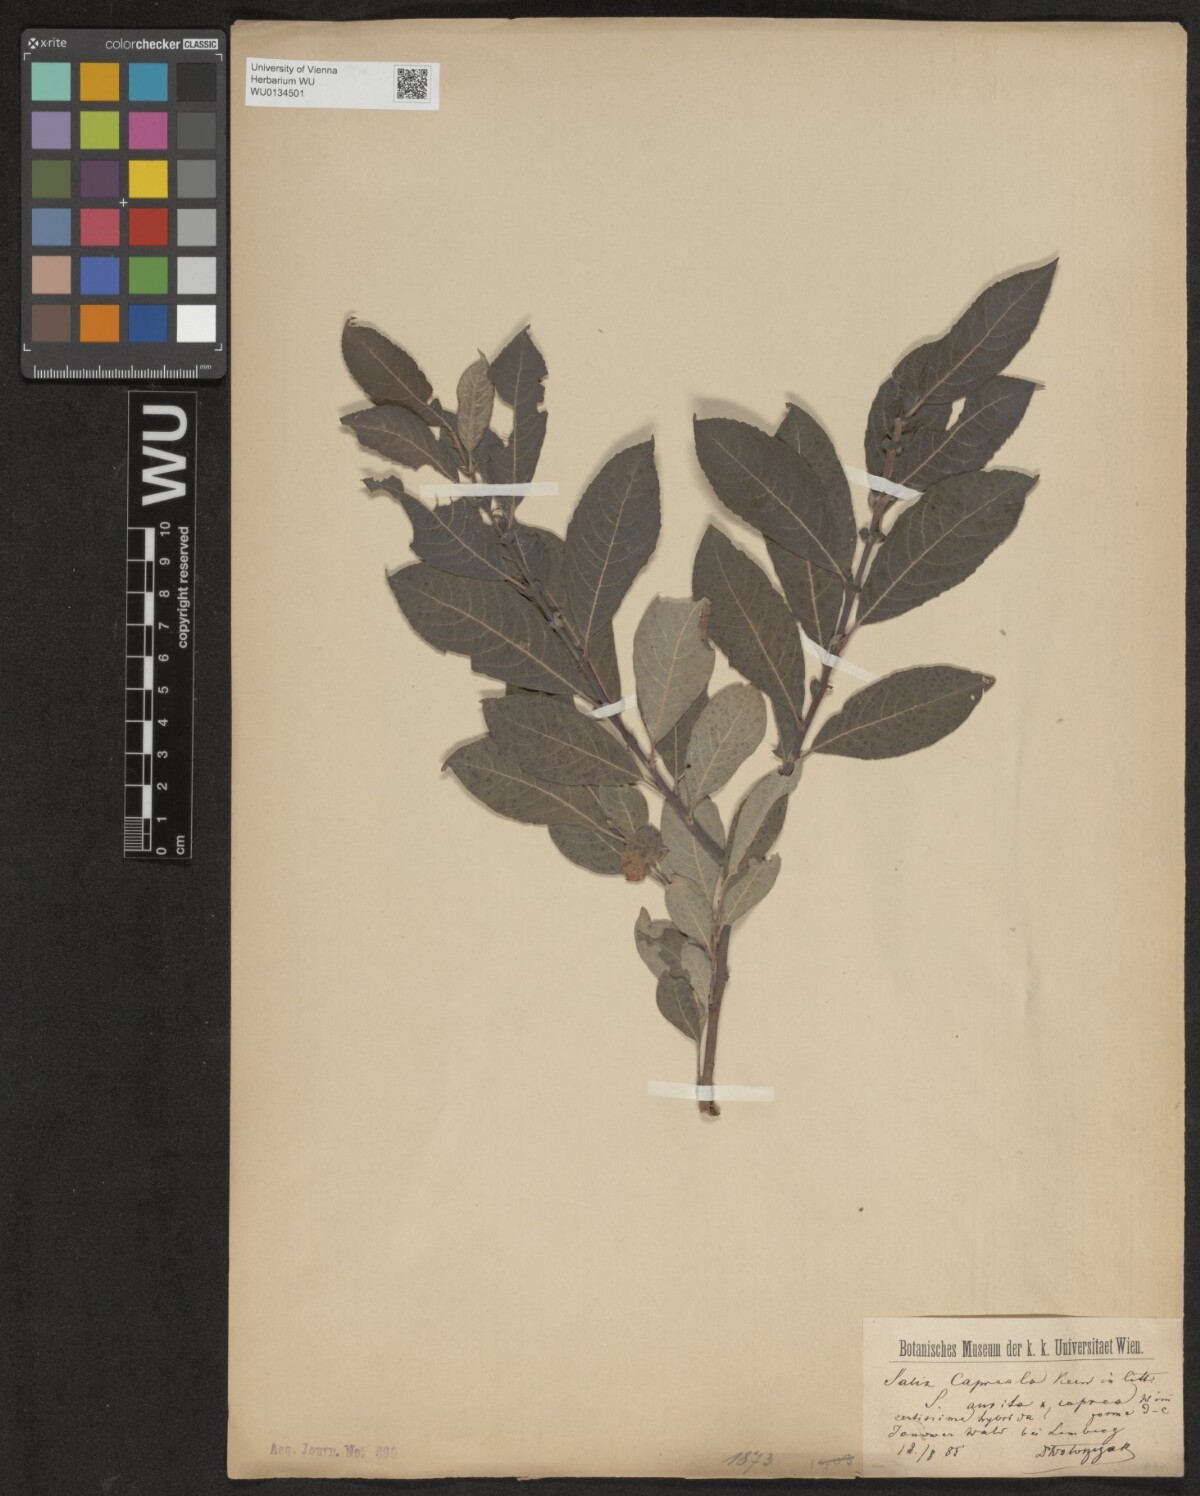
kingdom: Plantae
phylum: Tracheophyta
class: Magnoliopsida
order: Malpighiales
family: Salicaceae
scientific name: Salicaceae
